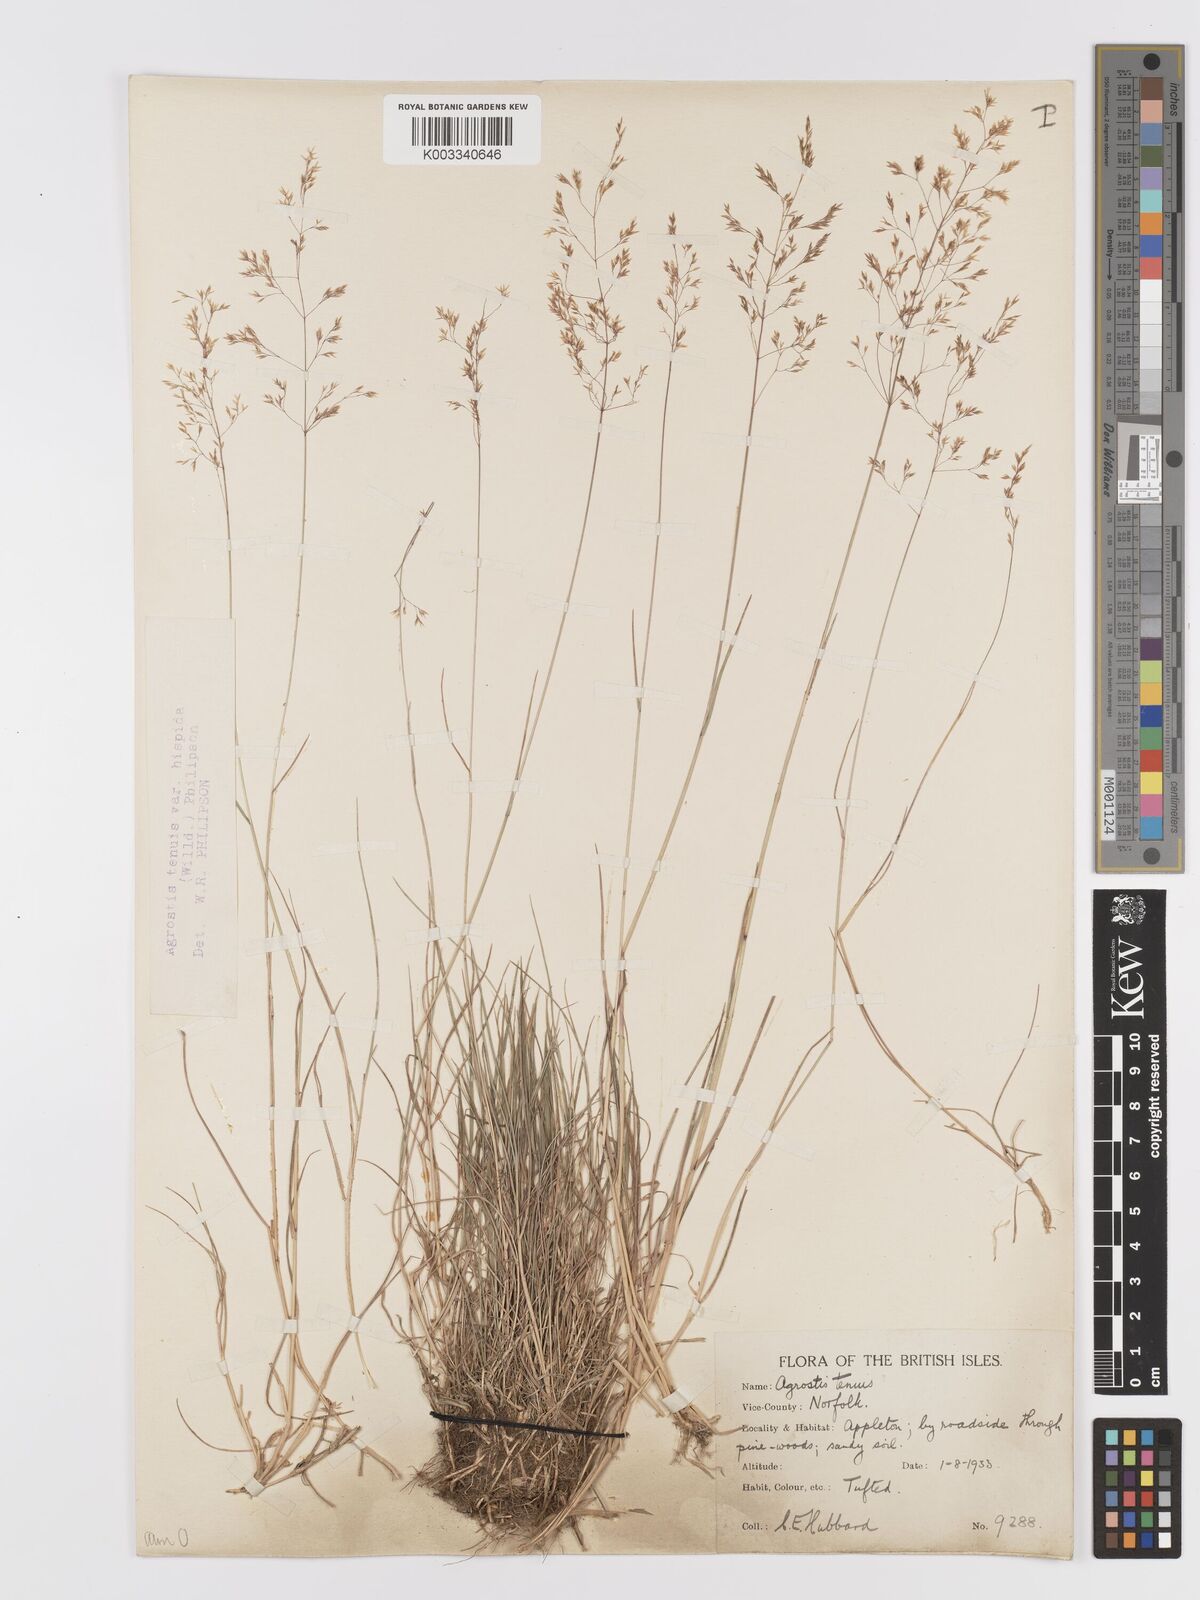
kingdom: Plantae
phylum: Tracheophyta
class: Liliopsida
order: Poales
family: Poaceae
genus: Agrostis
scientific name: Agrostis capillaris
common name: Colonial bentgrass
